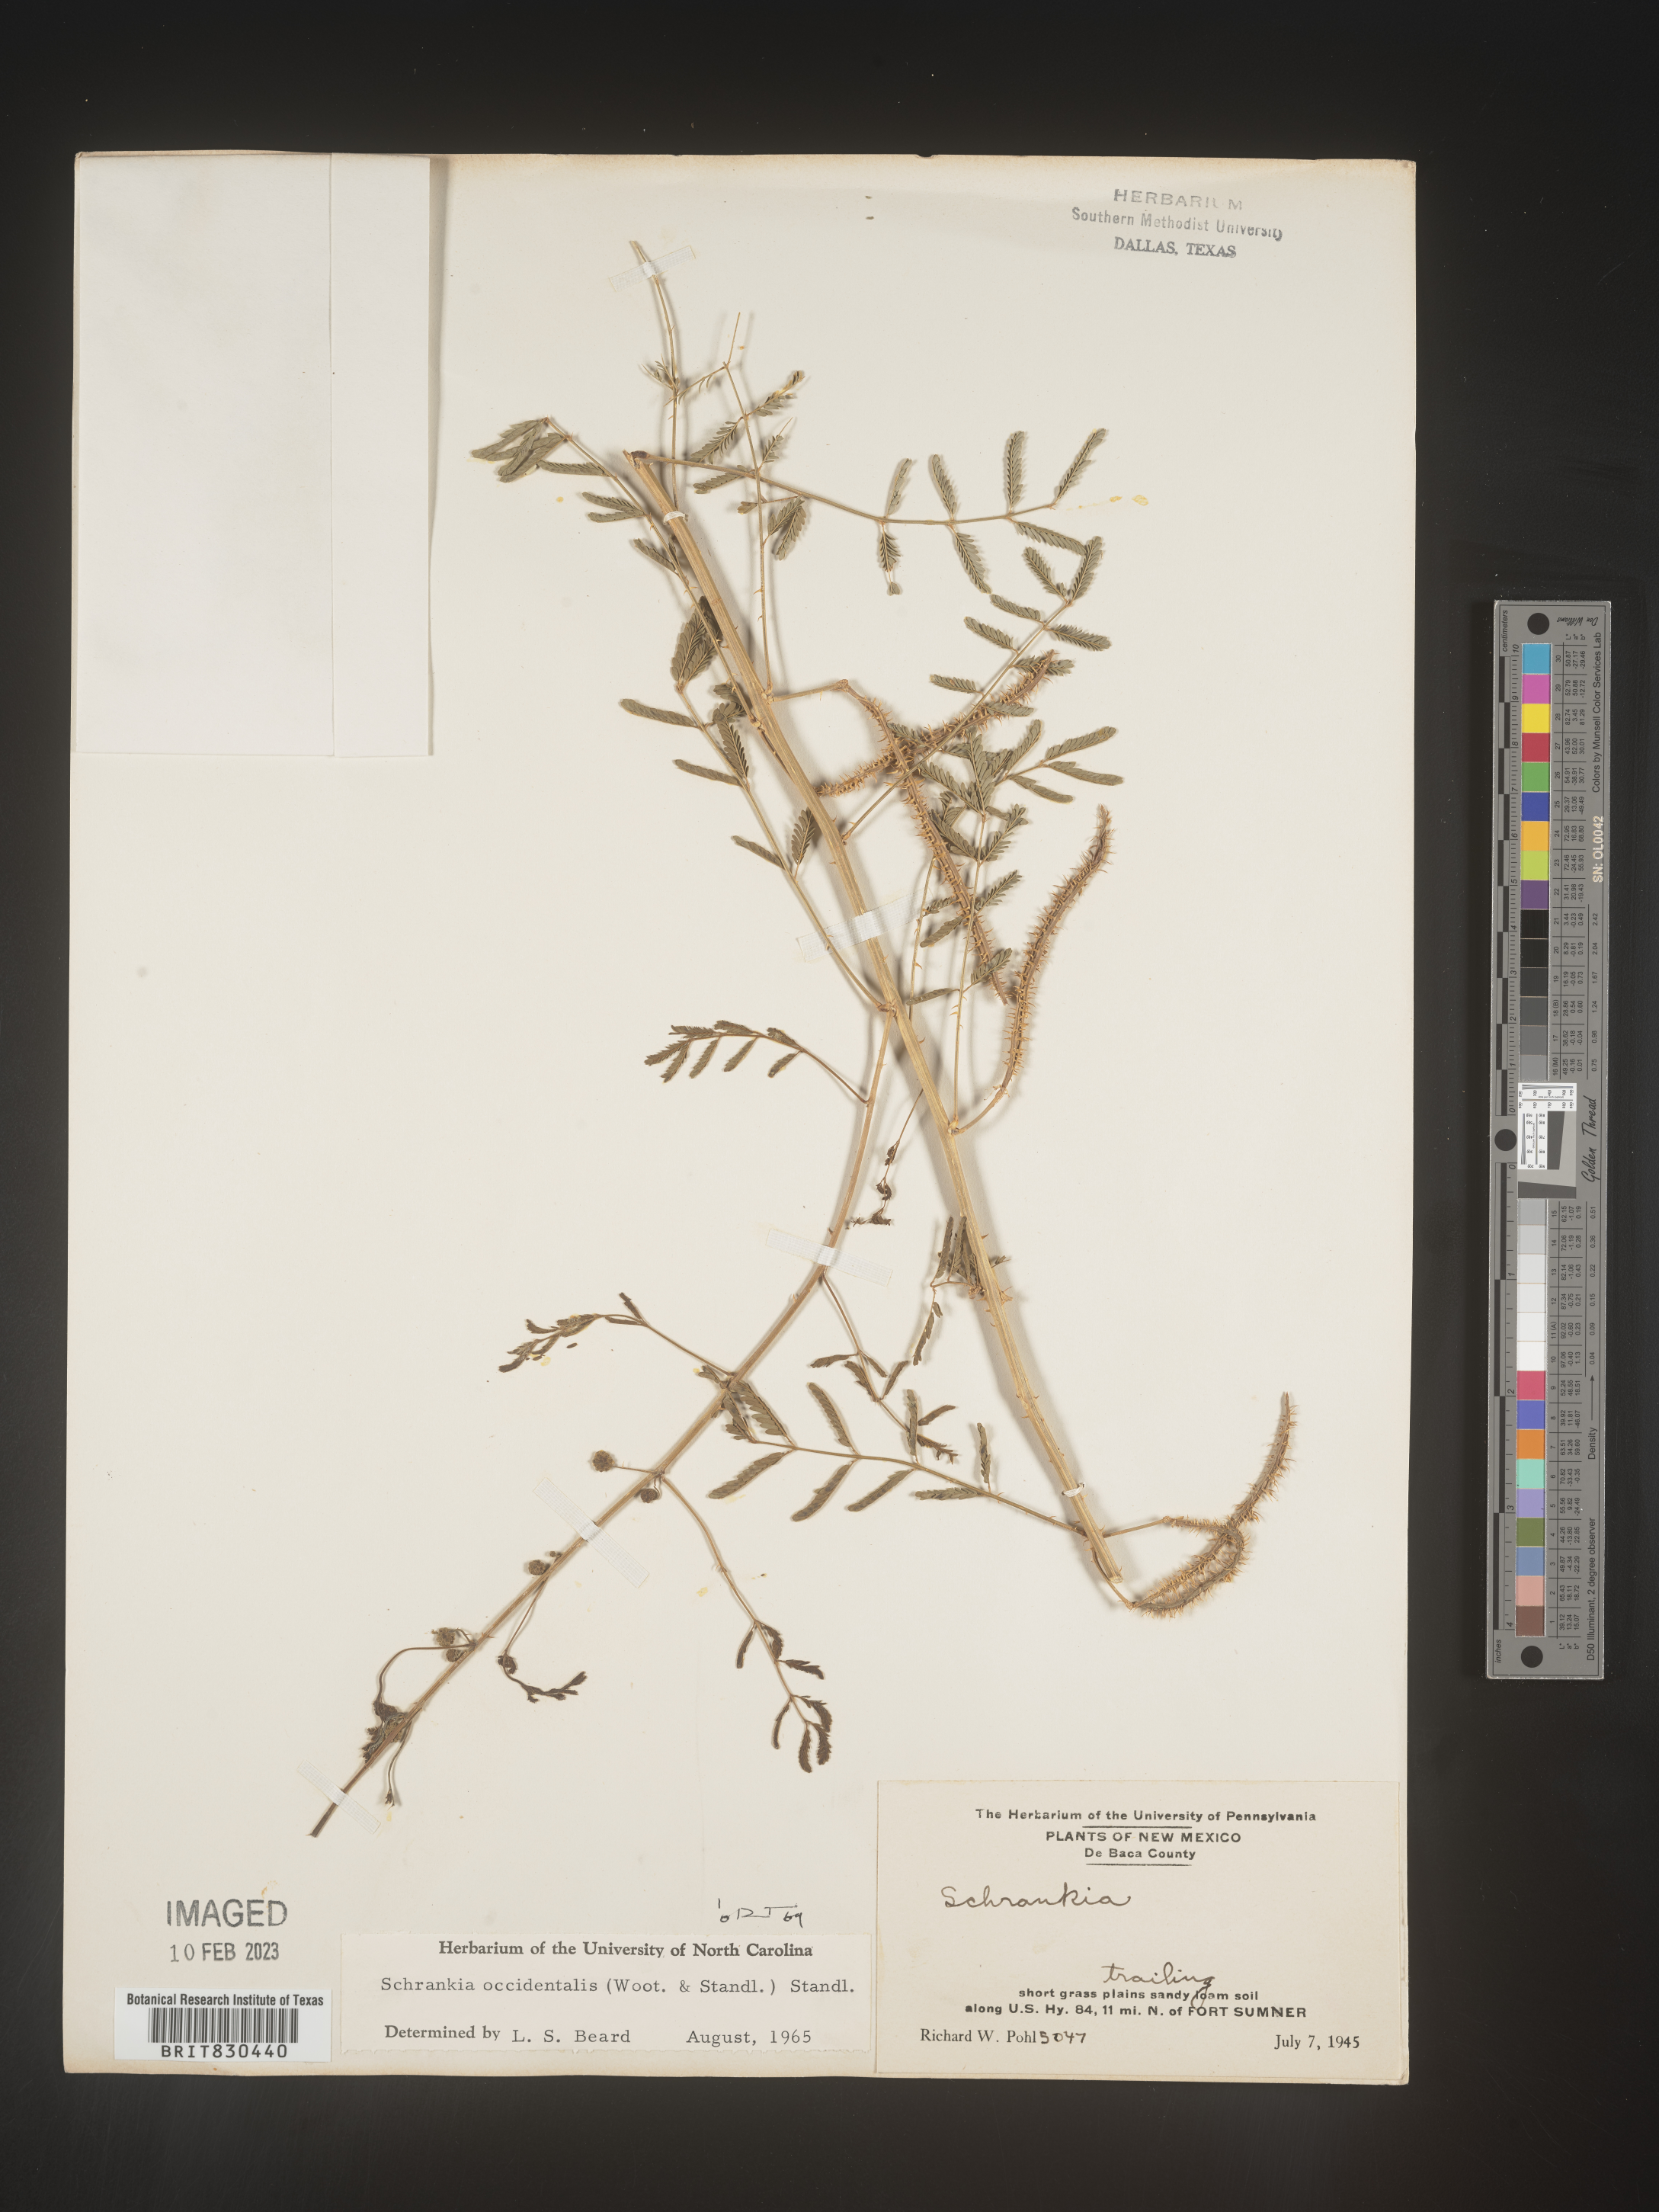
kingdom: Plantae
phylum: Tracheophyta
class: Magnoliopsida
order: Fabales
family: Fabaceae
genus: Mimosa
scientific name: Mimosa
